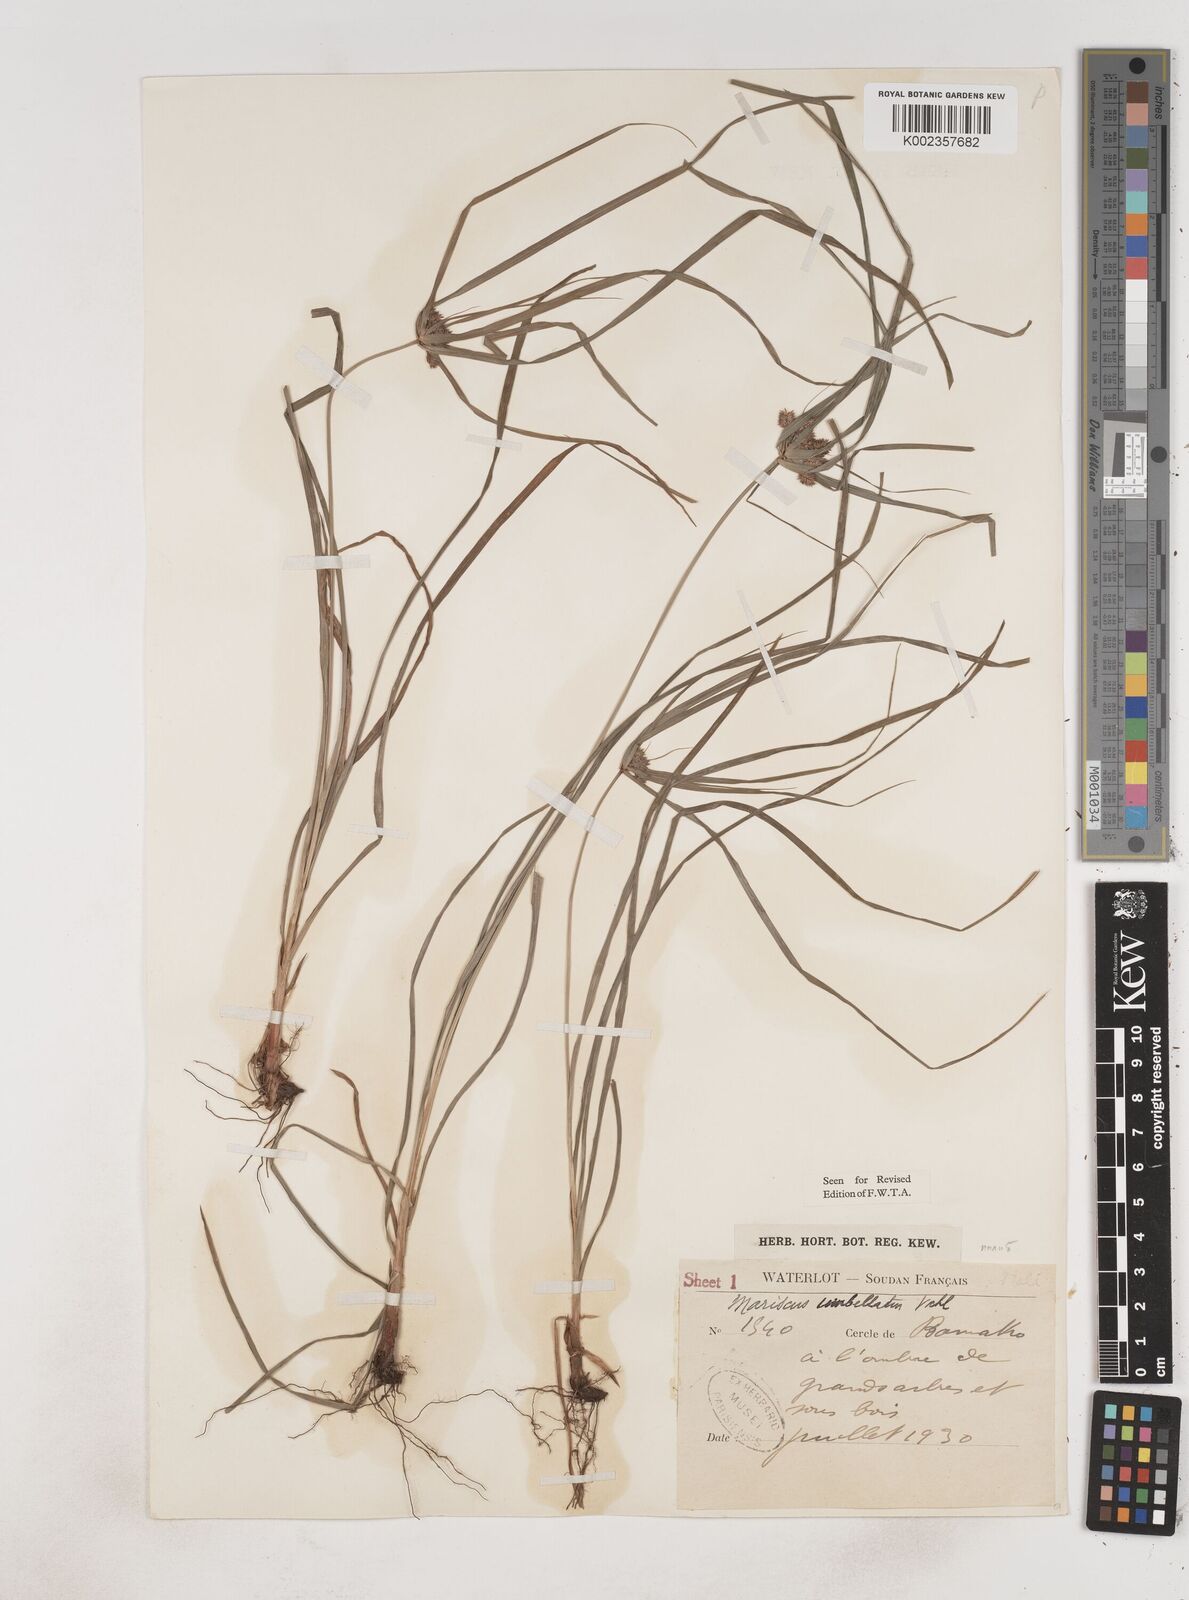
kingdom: Plantae
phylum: Tracheophyta
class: Liliopsida
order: Poales
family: Cyperaceae
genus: Cyperus
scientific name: Cyperus sublimis
